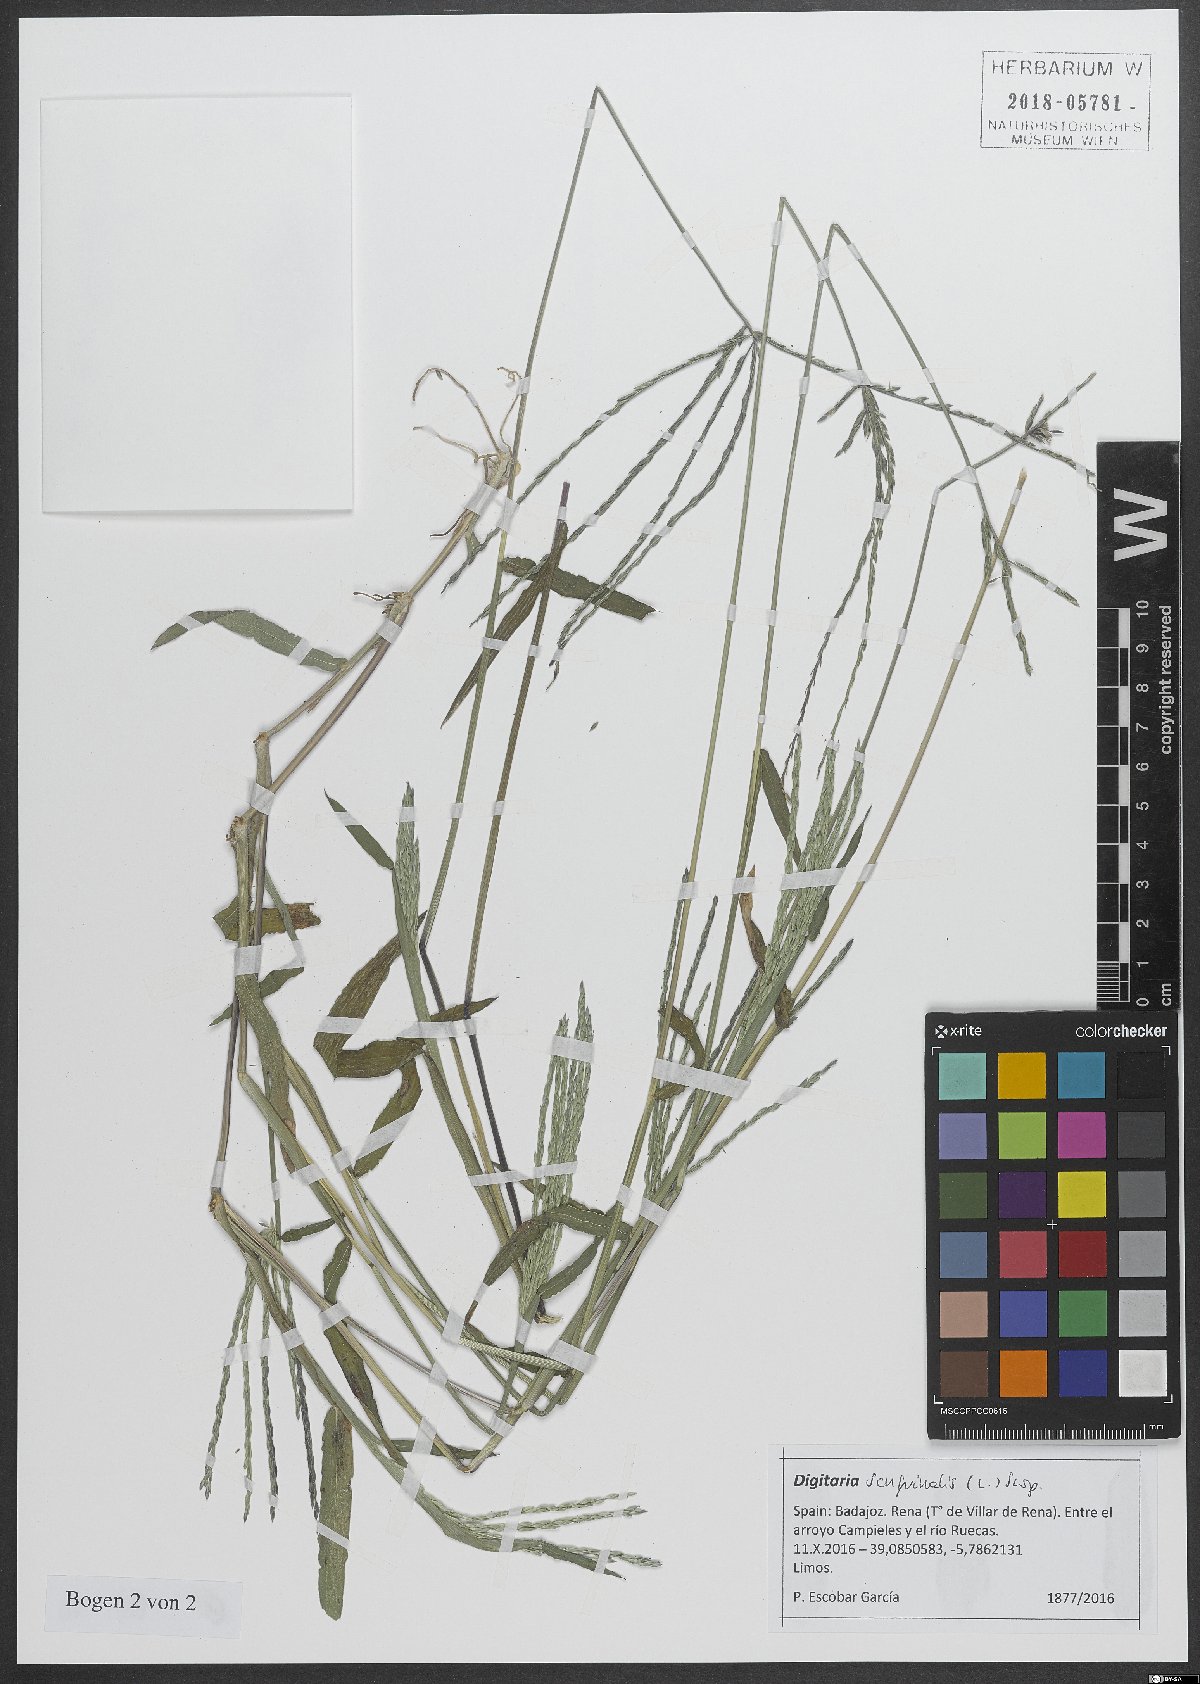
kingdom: Plantae
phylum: Tracheophyta
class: Liliopsida
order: Poales
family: Poaceae
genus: Digitaria
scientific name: Digitaria sanguinalis
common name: Hairy crabgrass
